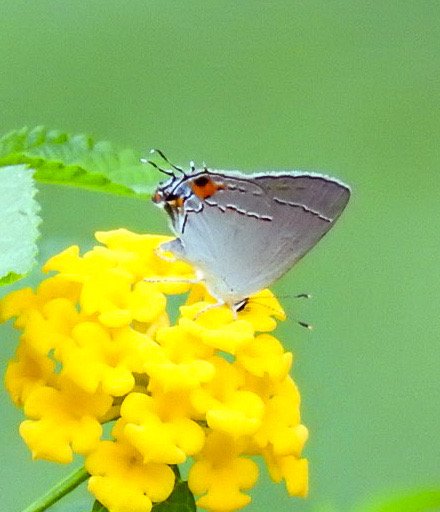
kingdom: Animalia
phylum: Arthropoda
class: Insecta
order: Lepidoptera
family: Lycaenidae
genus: Strymon
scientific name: Strymon melinus
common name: Gray Hairstreak
